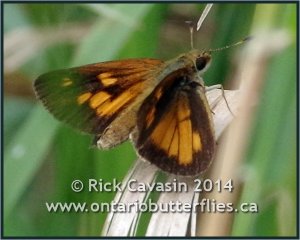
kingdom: Animalia
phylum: Arthropoda
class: Insecta
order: Lepidoptera
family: Hesperiidae
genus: Poanes
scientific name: Poanes viator
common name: Broad-winged Skipper
